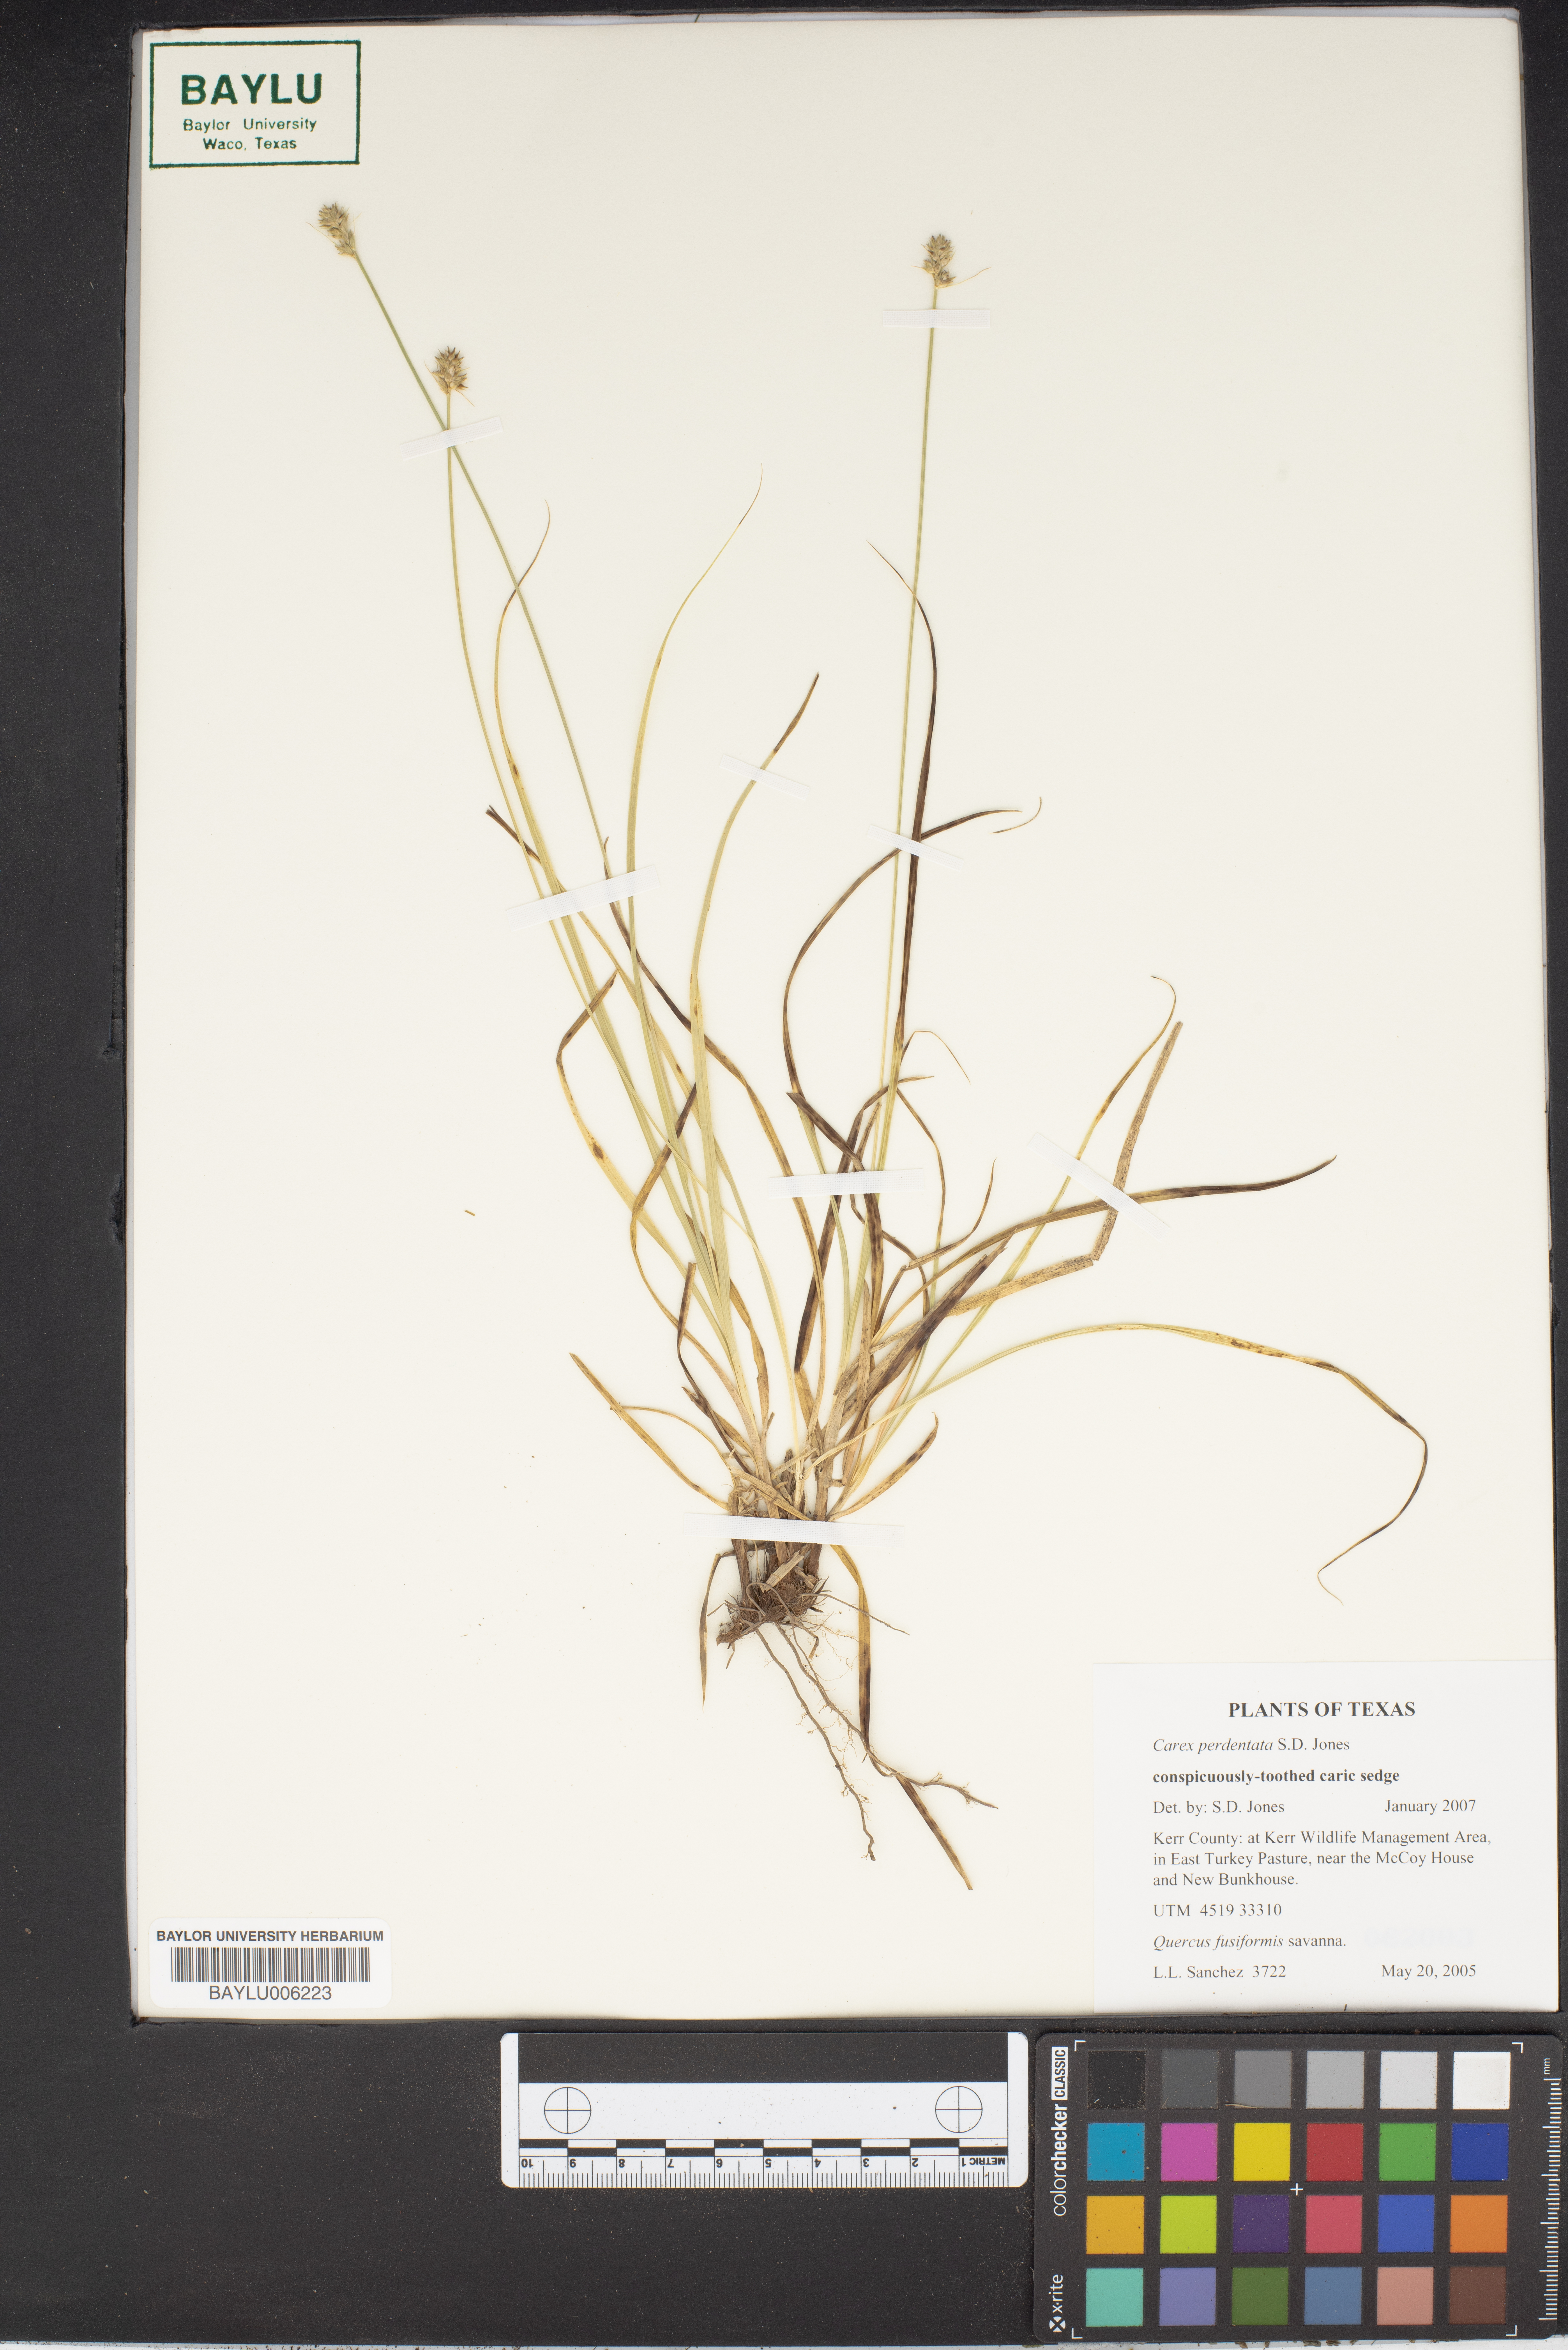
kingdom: Plantae
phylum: Tracheophyta
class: Magnoliopsida
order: Fagales
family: Fagaceae
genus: Quercus
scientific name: Quercus fusiformis
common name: Texas live oak
